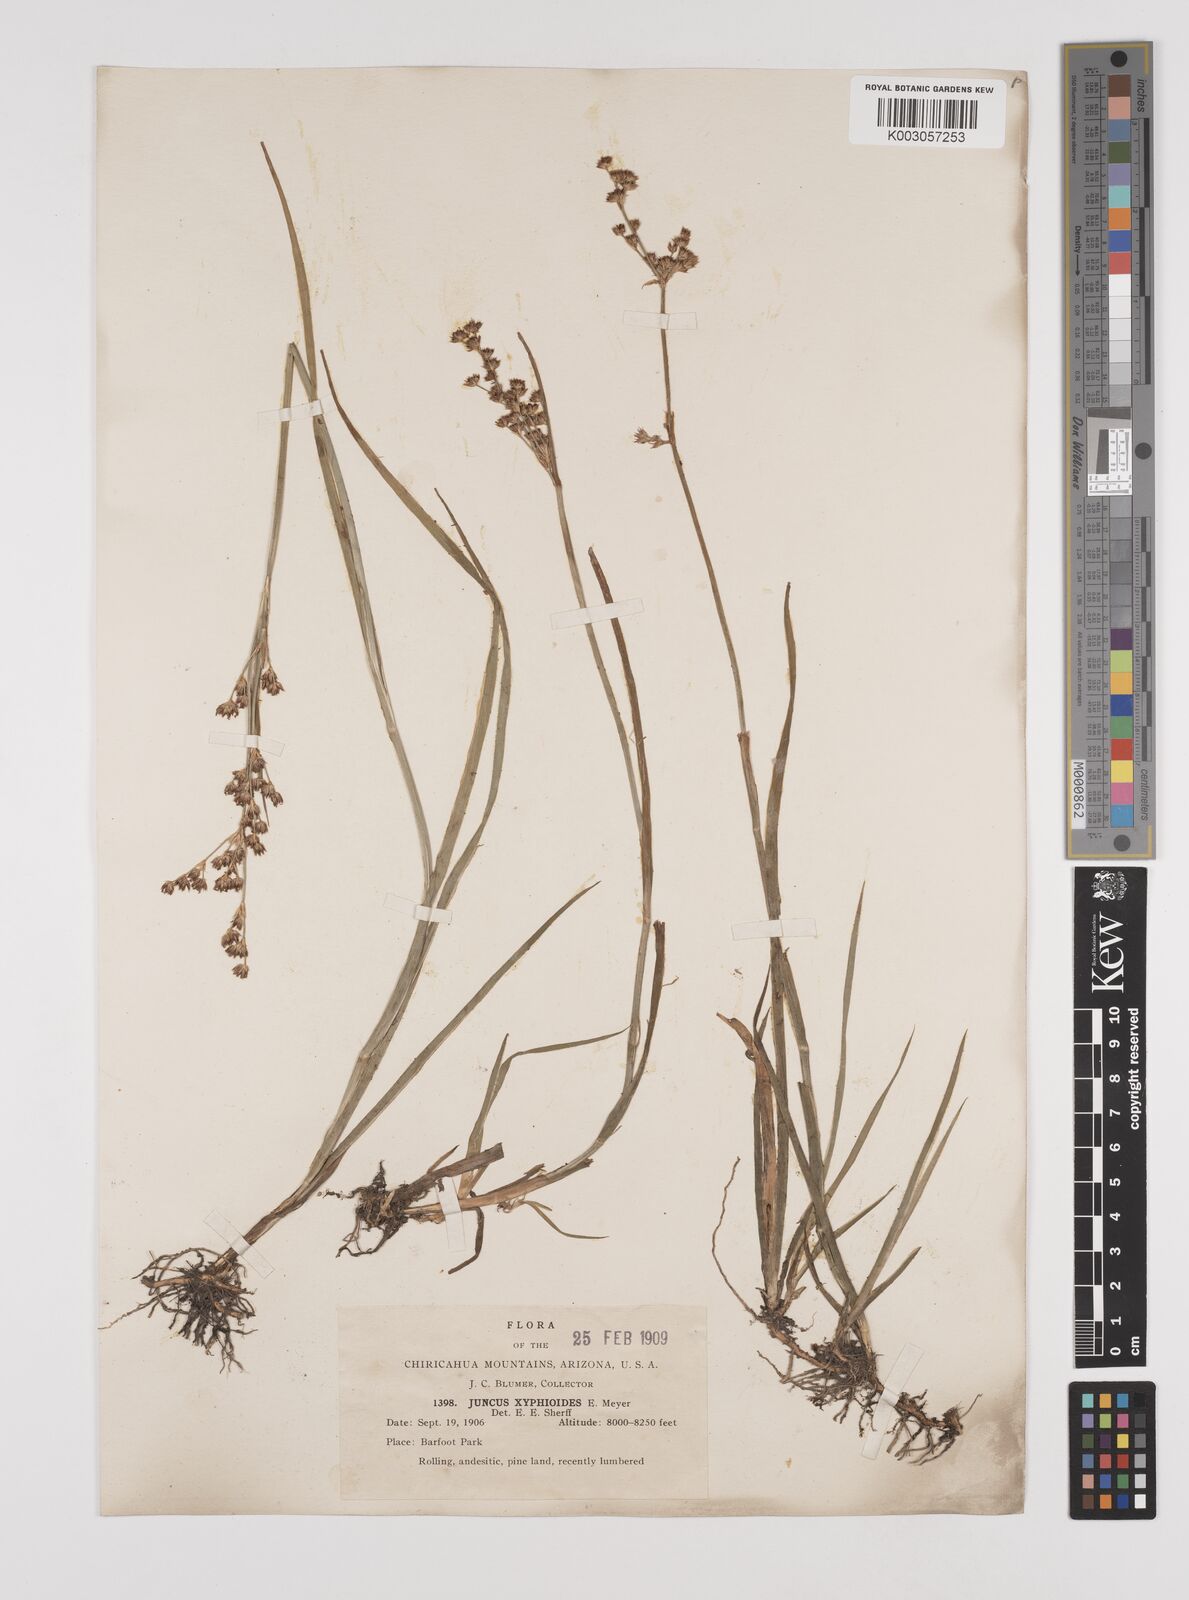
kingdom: Plantae
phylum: Tracheophyta
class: Liliopsida
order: Poales
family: Juncaceae
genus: Juncus
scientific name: Juncus xiphioides
